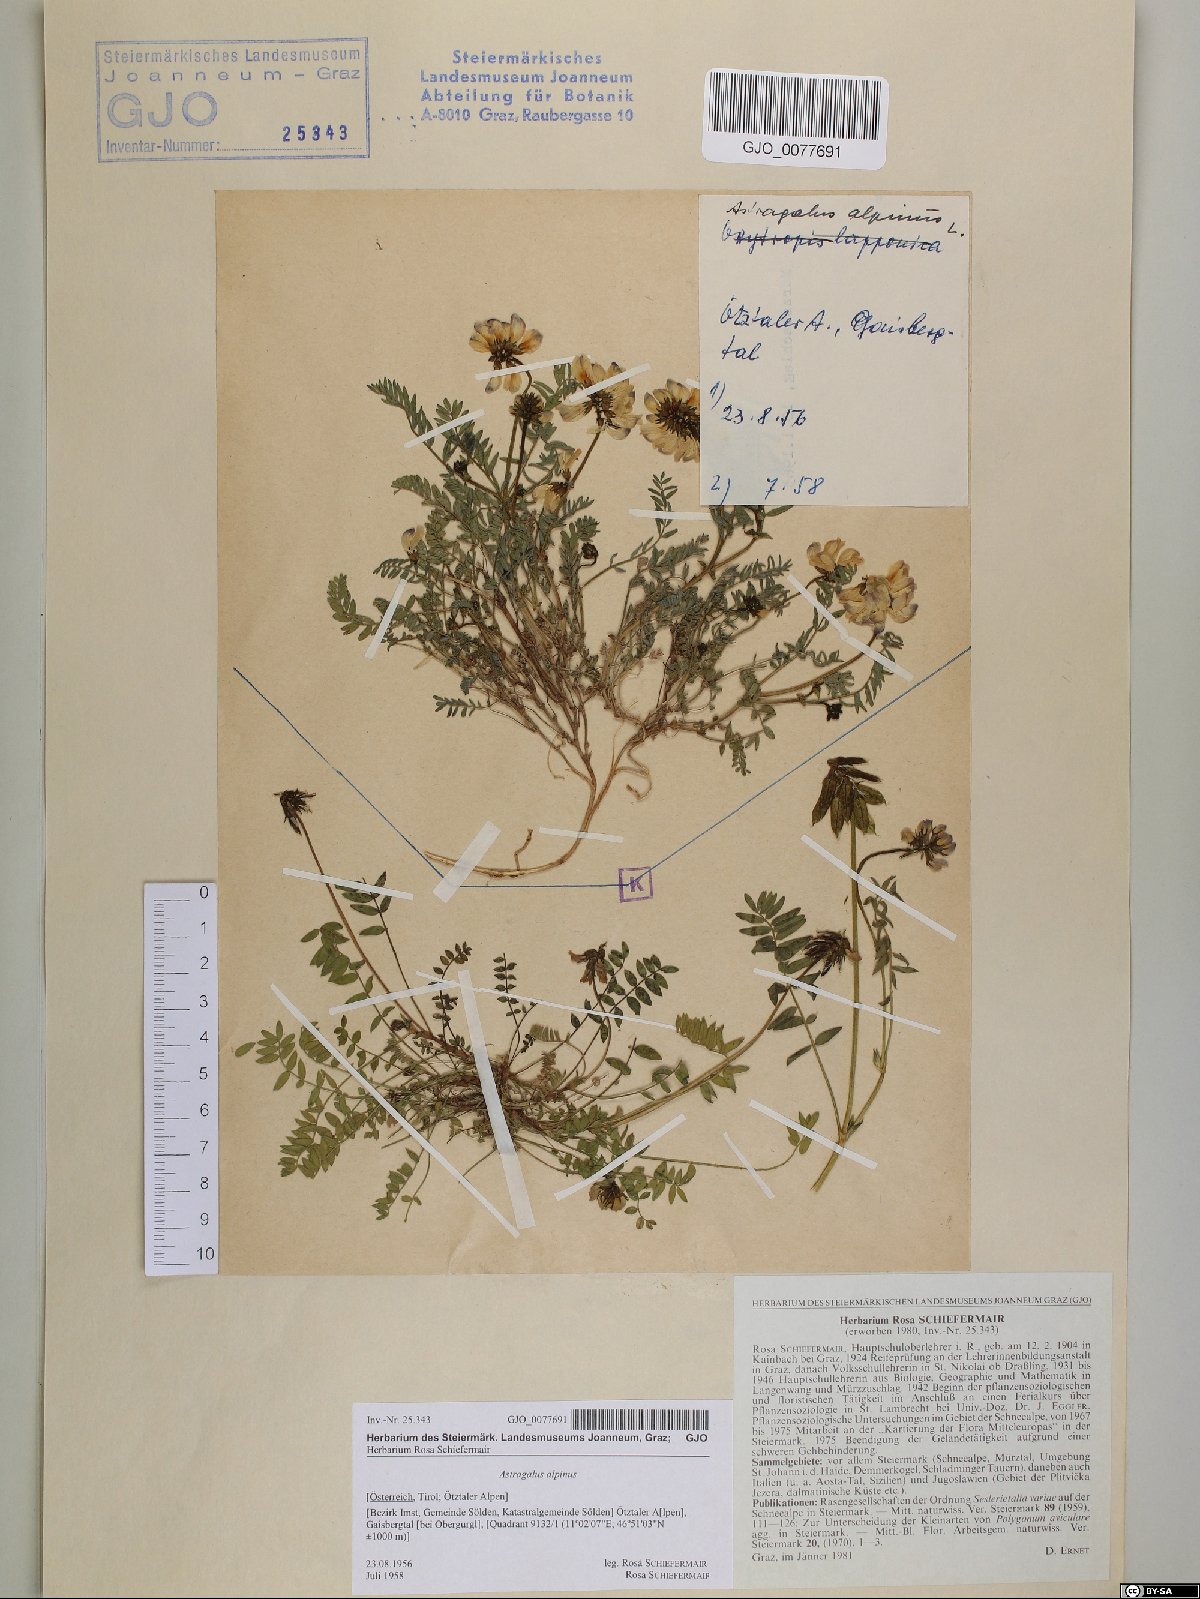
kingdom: Plantae
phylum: Tracheophyta
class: Magnoliopsida
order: Fabales
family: Fabaceae
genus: Astragalus
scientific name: Astragalus alpinus
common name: Alpine milk-vetch
